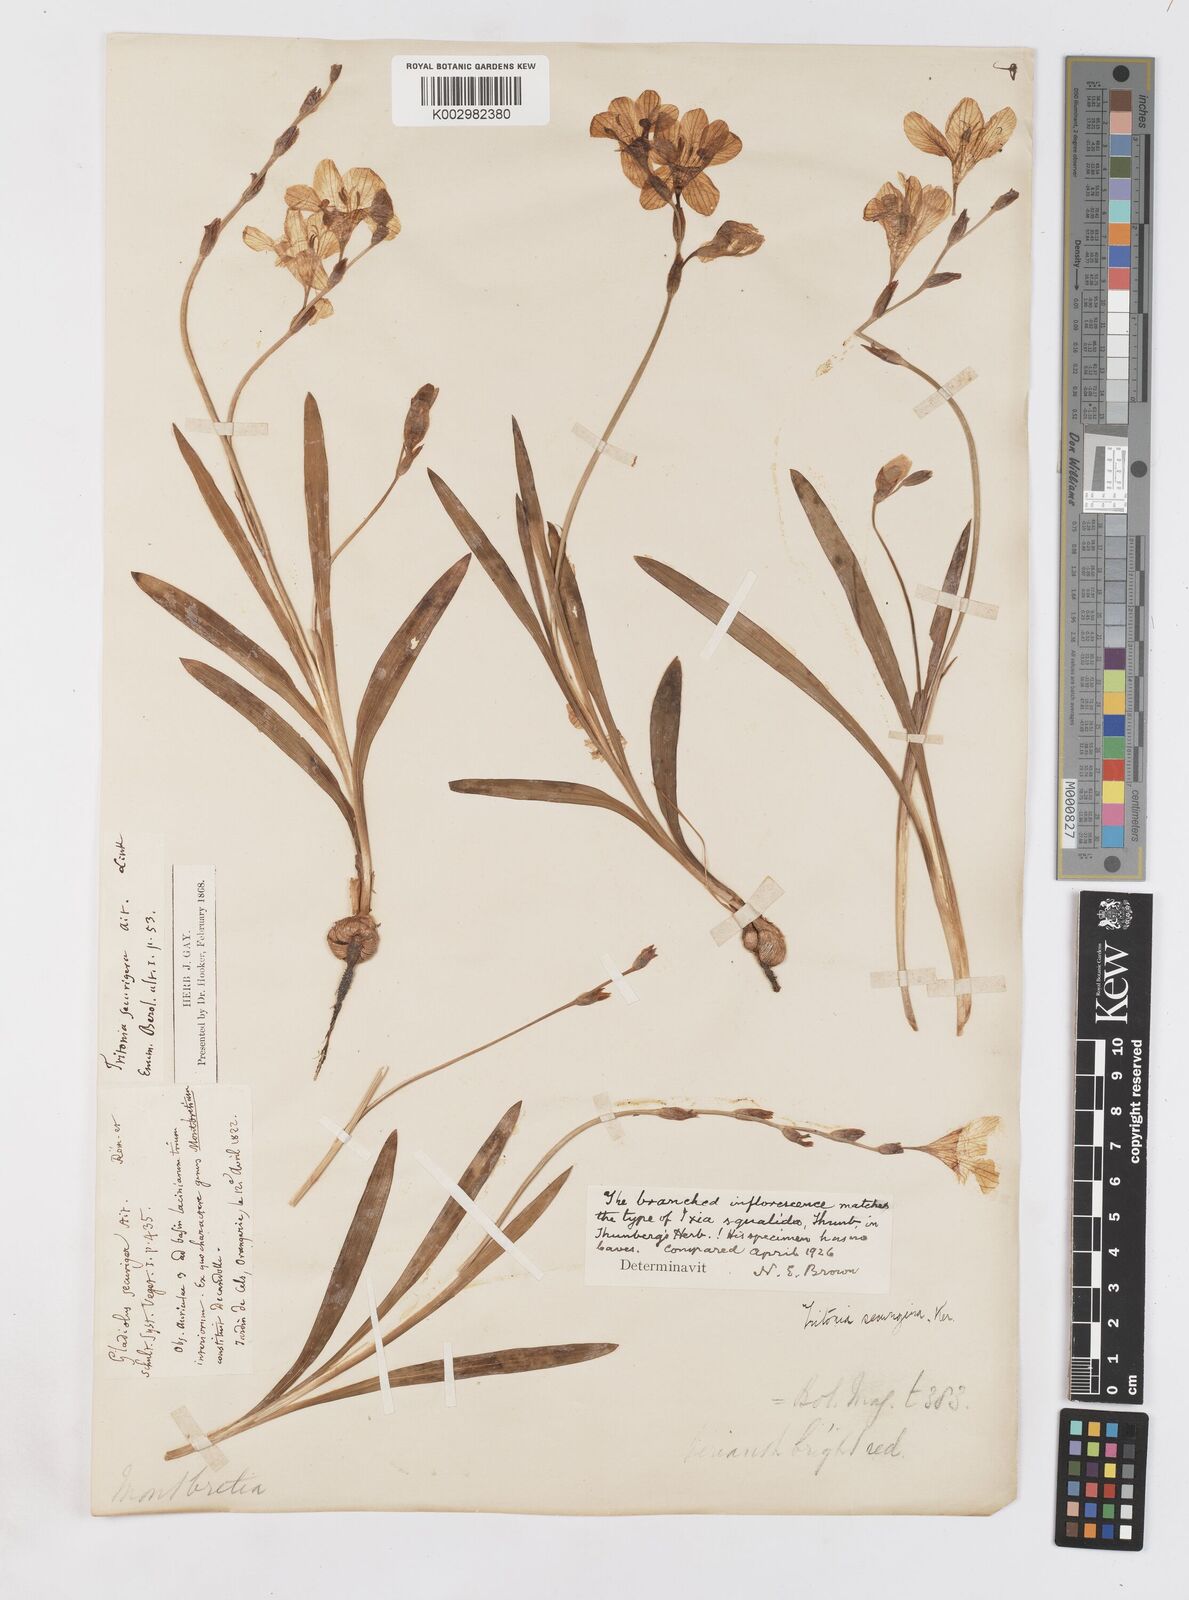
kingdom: Plantae
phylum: Tracheophyta
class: Liliopsida
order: Asparagales
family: Iridaceae
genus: Tritonia
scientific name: Tritonia securigera
